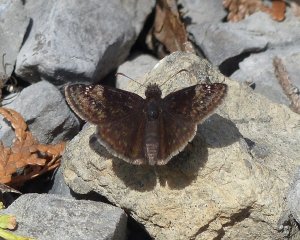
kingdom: Animalia
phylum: Arthropoda
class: Insecta
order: Lepidoptera
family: Hesperiidae
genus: Gesta
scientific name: Gesta
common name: Columbine Duskywing
